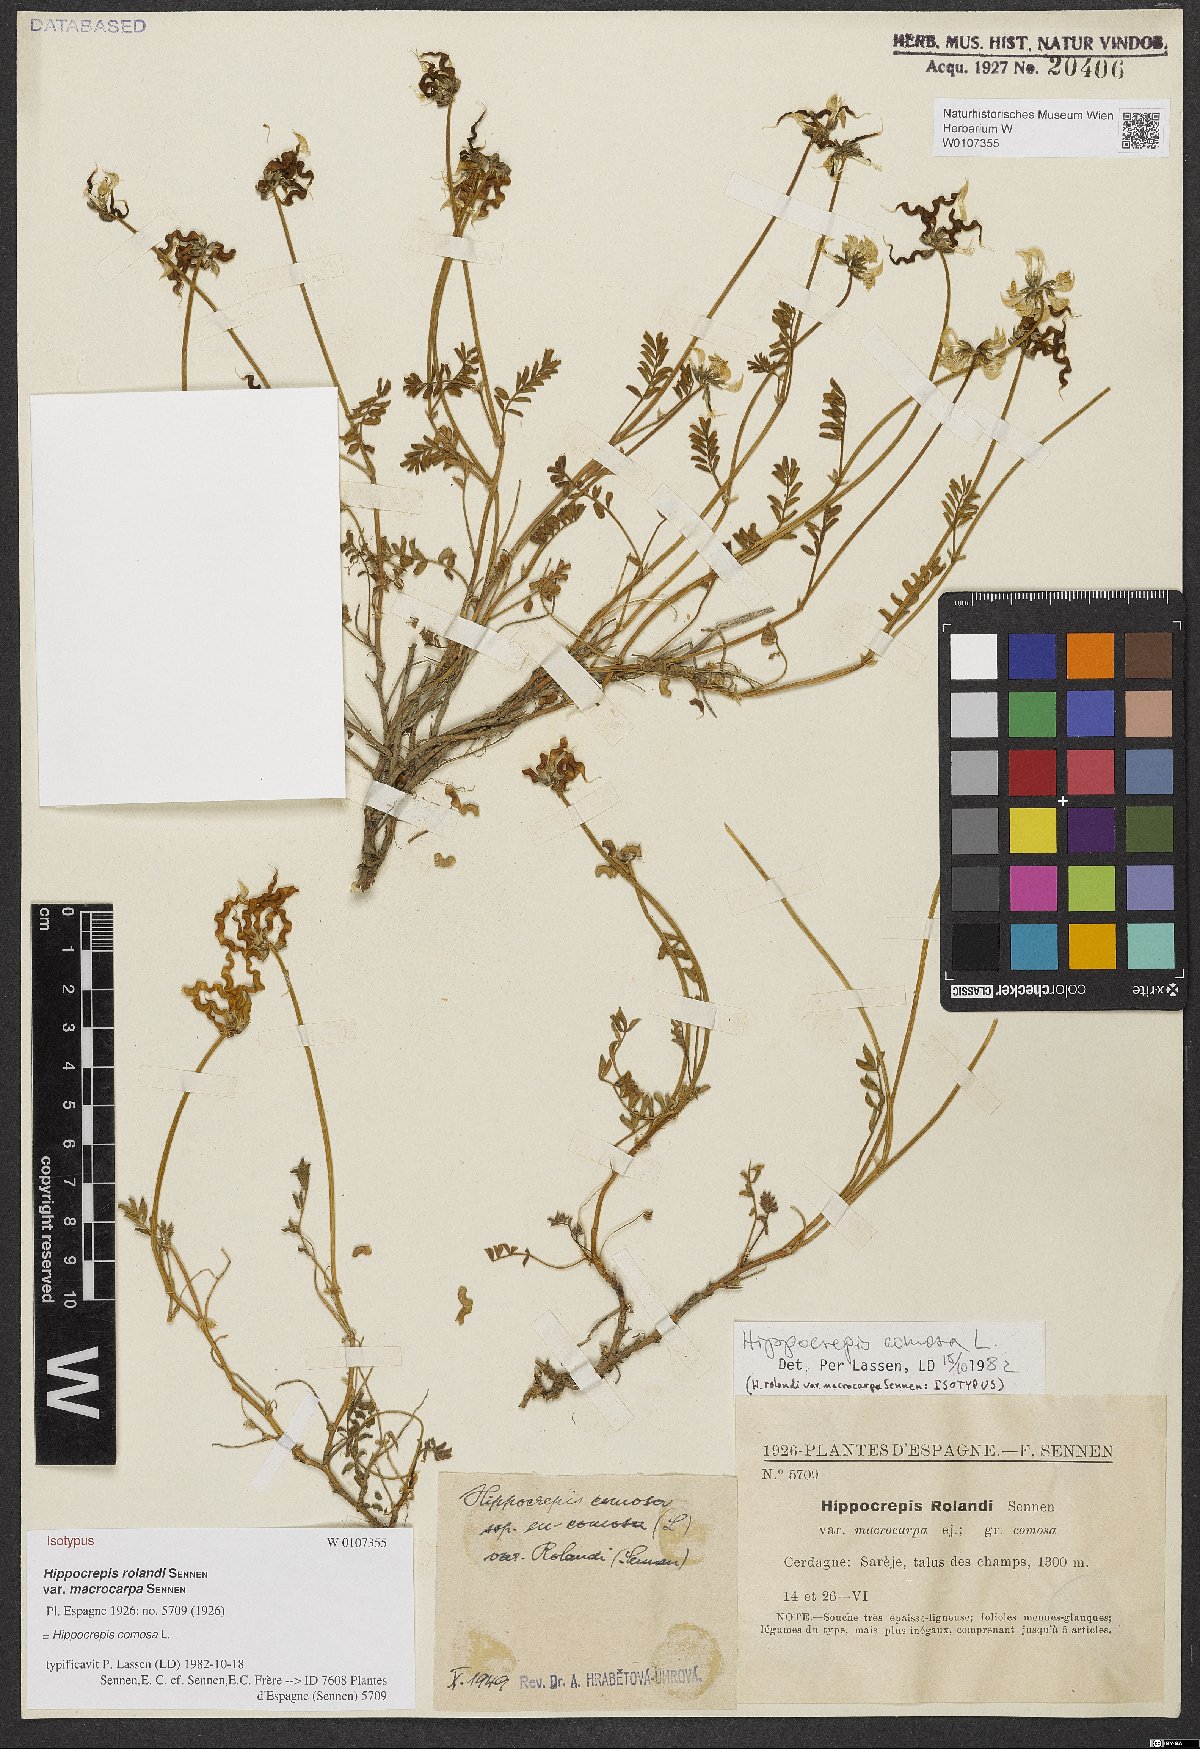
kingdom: Plantae
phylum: Tracheophyta
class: Magnoliopsida
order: Fabales
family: Fabaceae
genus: Hippocrepis
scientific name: Hippocrepis comosa
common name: Horseshoe vetch
